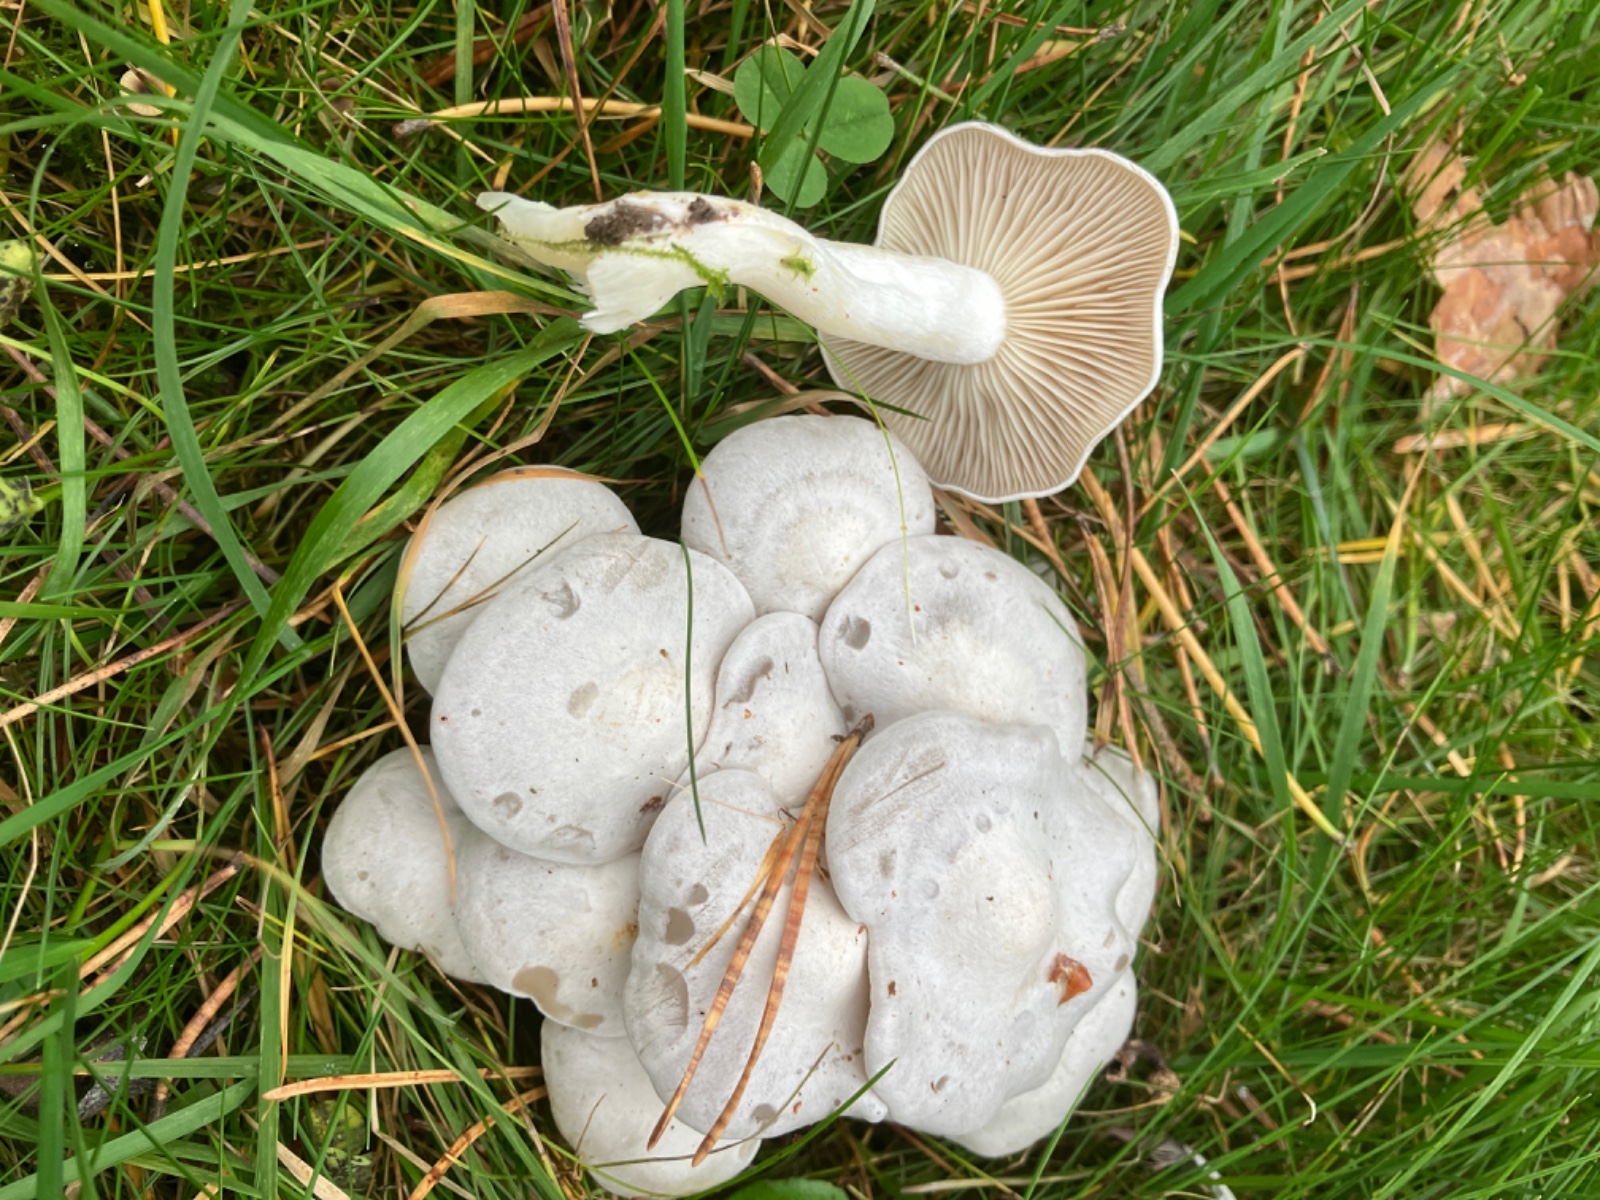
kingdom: Fungi
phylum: Basidiomycota
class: Agaricomycetes
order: Agaricales
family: Tricholomataceae
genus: Leucocybe
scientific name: Leucocybe connata
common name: knippe-tragthat
